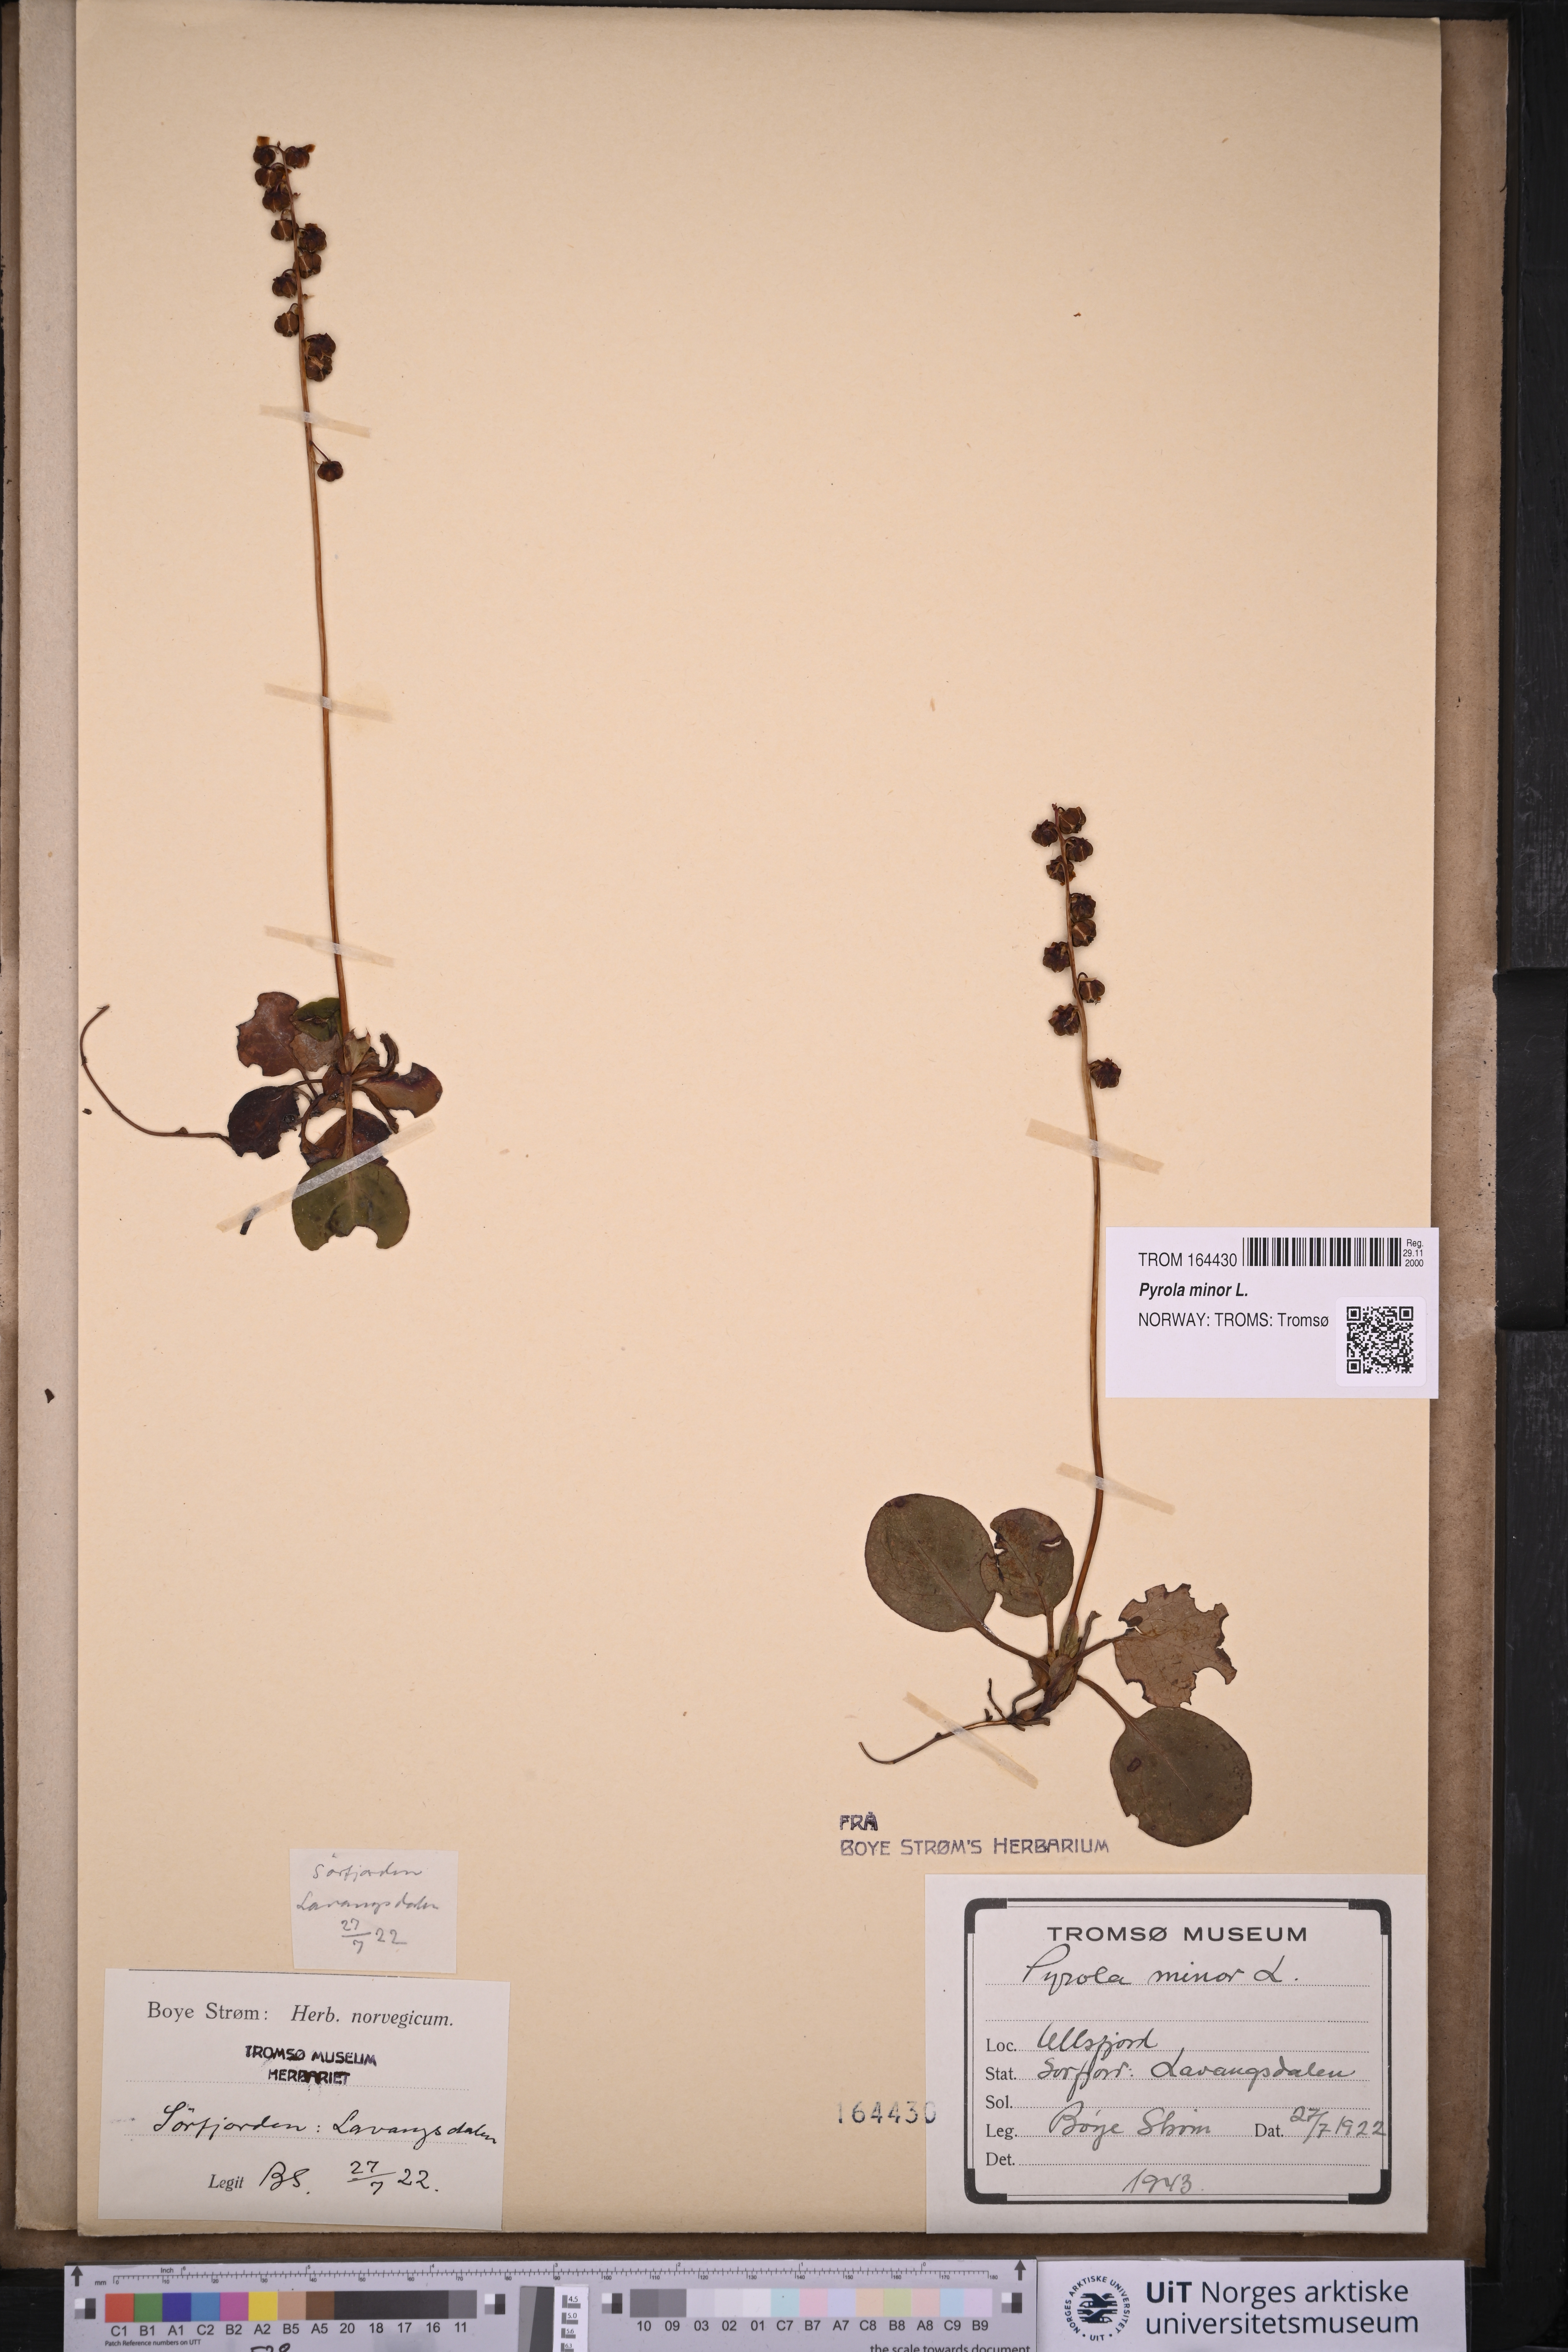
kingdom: Plantae
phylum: Tracheophyta
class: Magnoliopsida
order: Ericales
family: Ericaceae
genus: Pyrola
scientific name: Pyrola minor
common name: Common wintergreen
